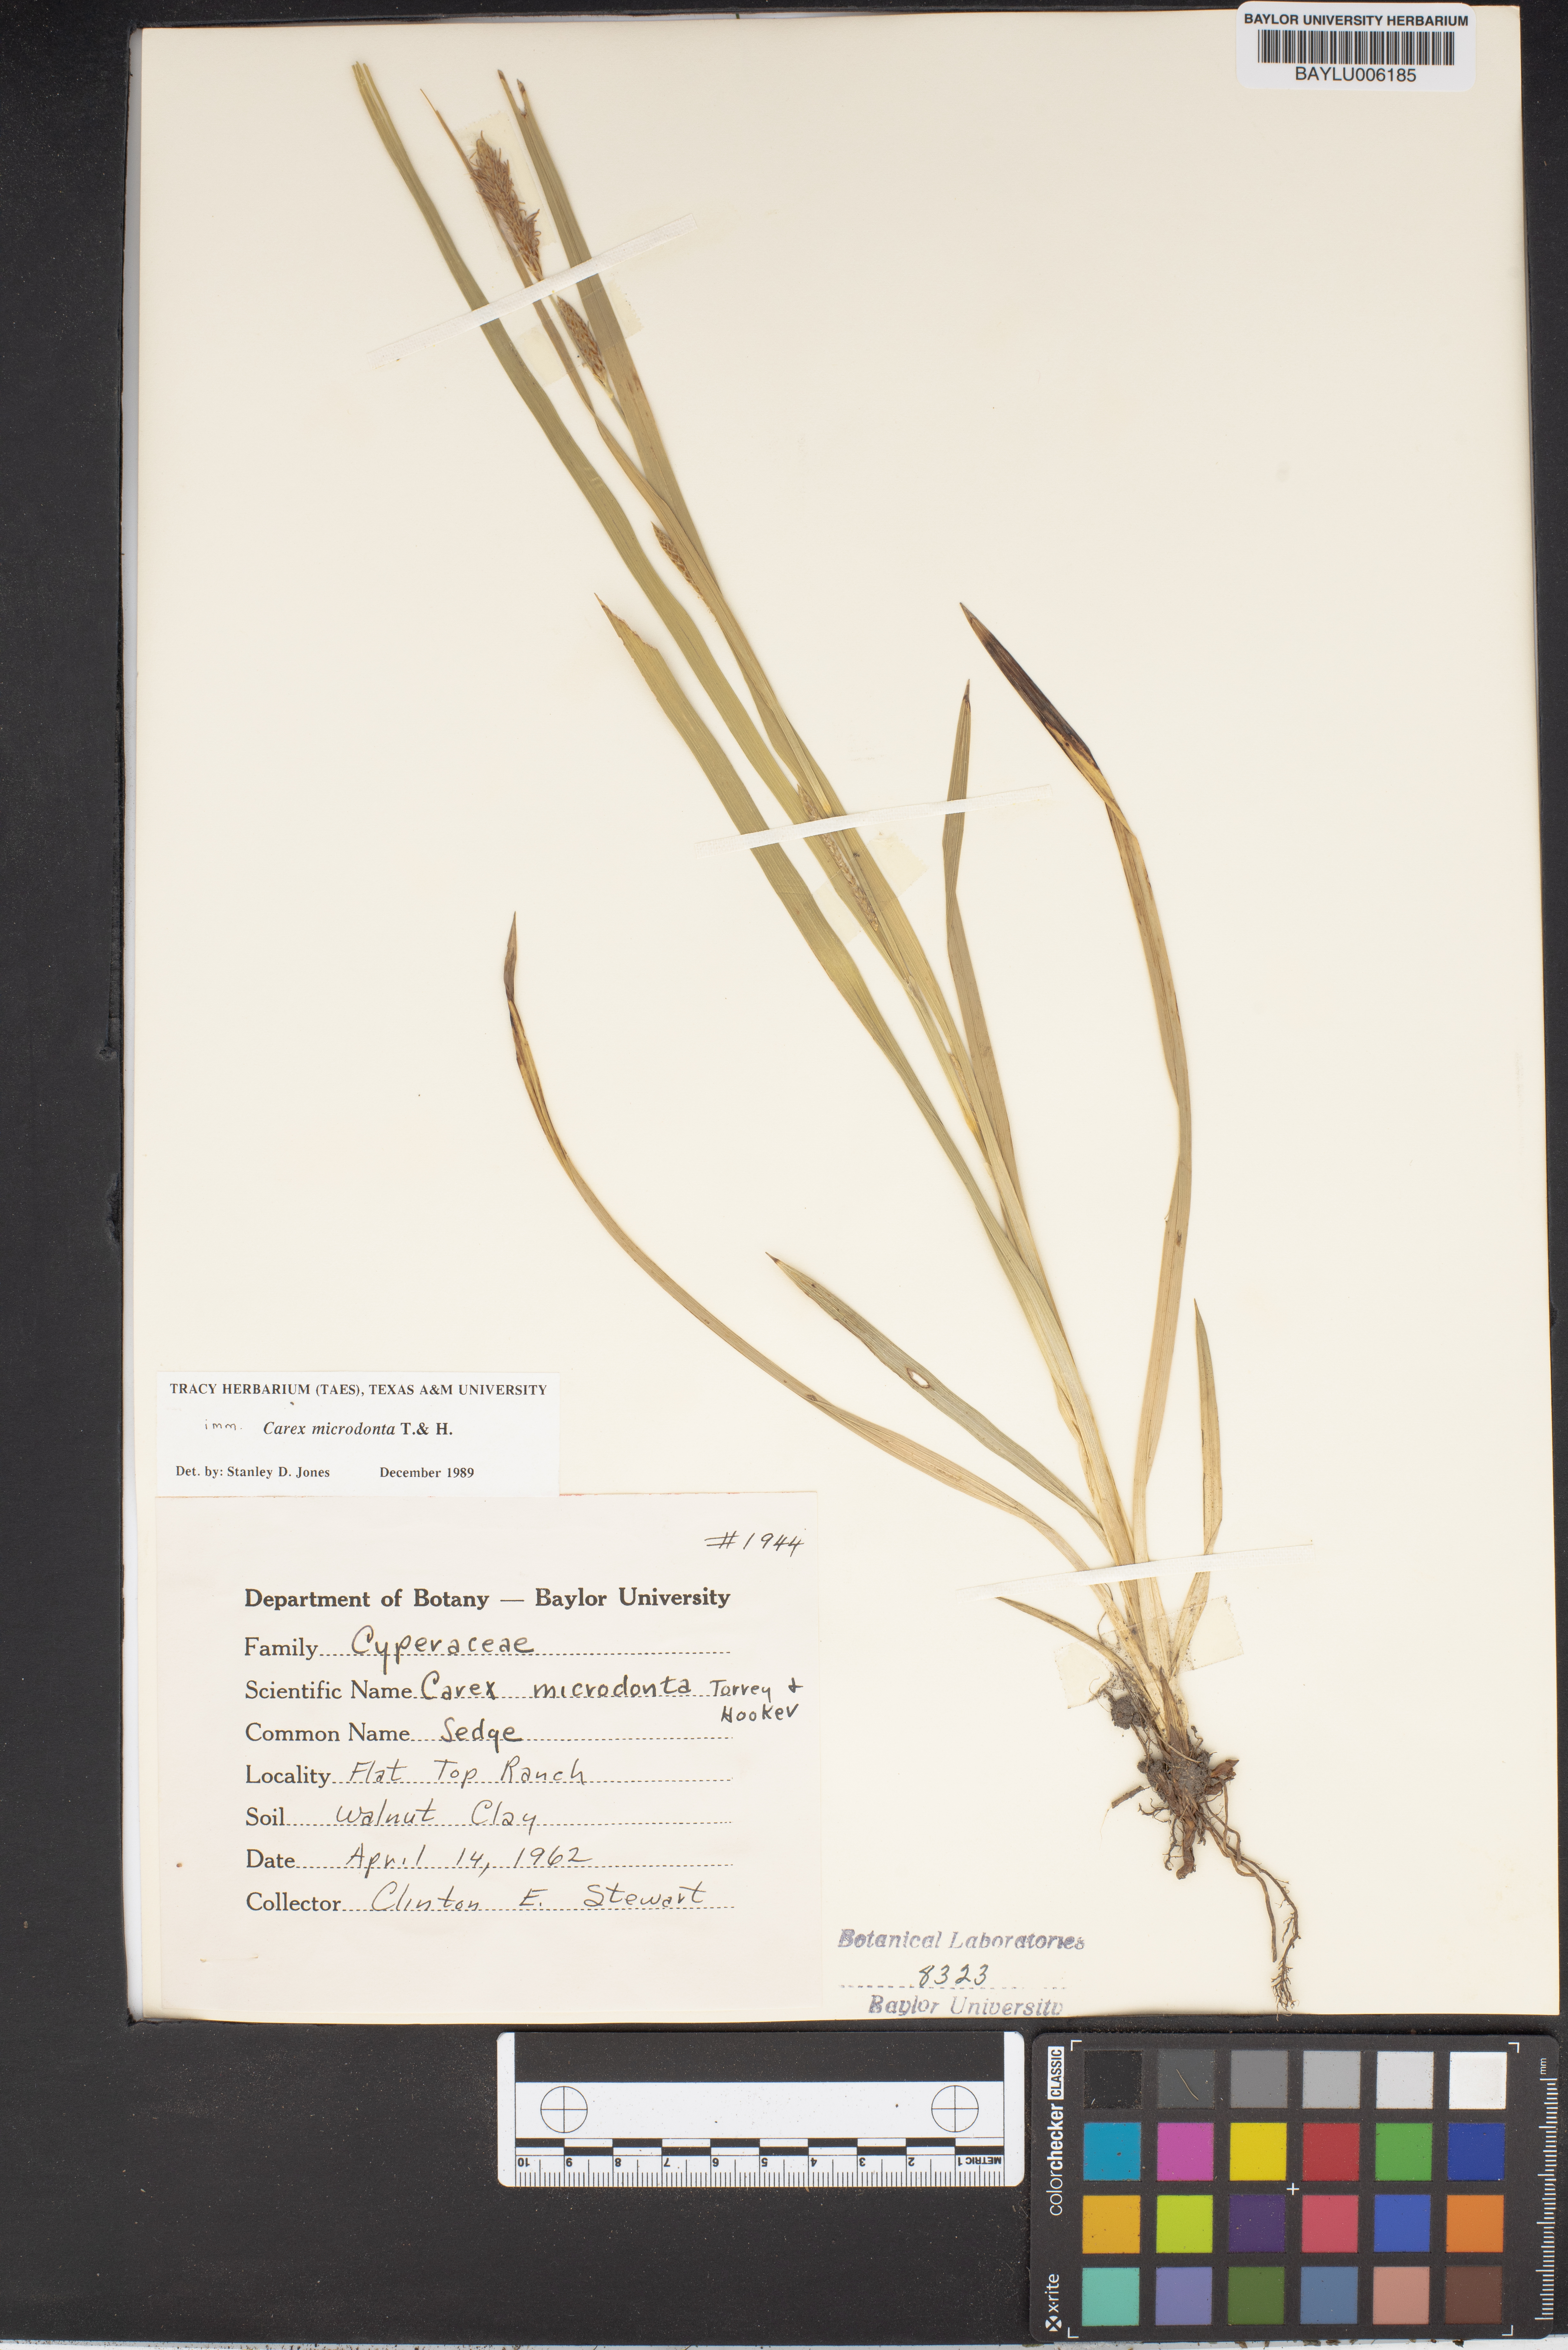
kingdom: Plantae
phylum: Tracheophyta
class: Liliopsida
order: Poales
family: Cyperaceae
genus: Carex
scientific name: Carex microdonta
